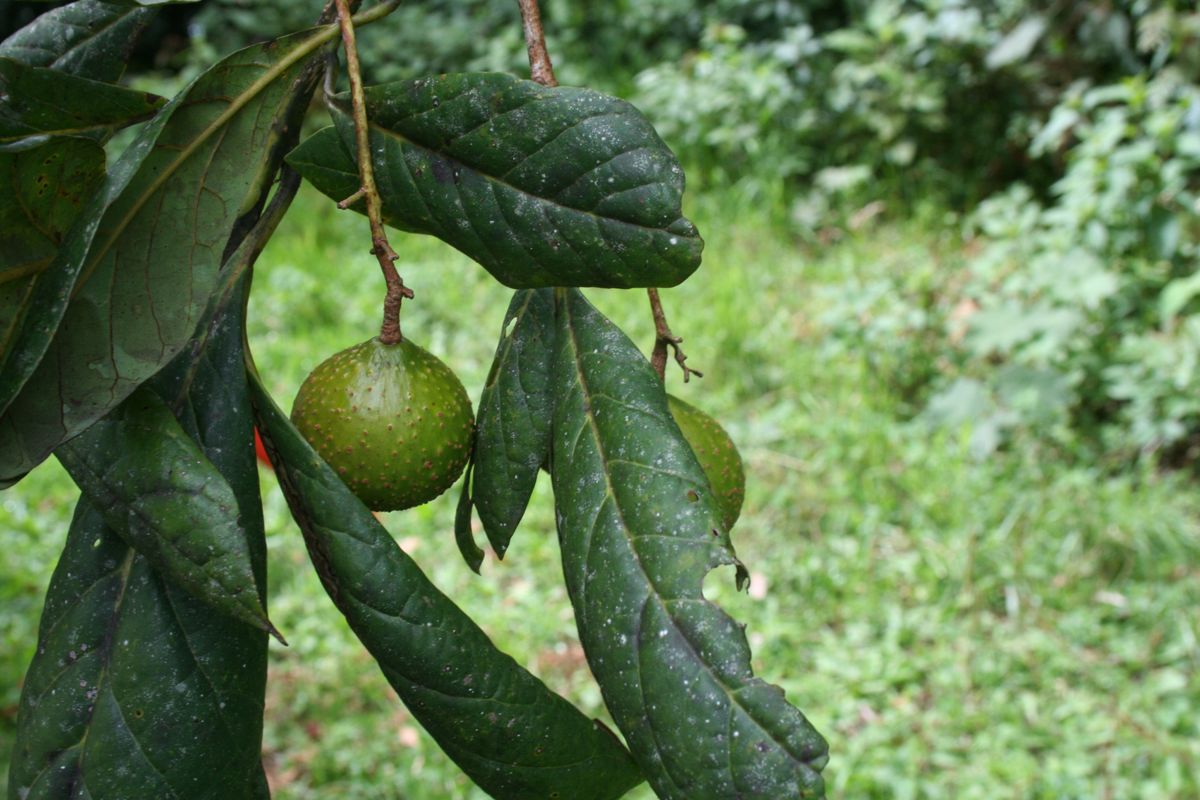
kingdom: Plantae
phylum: Tracheophyta
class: Magnoliopsida
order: Laurales
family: Lauraceae
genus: Persea
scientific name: Persea americana
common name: Avocado
